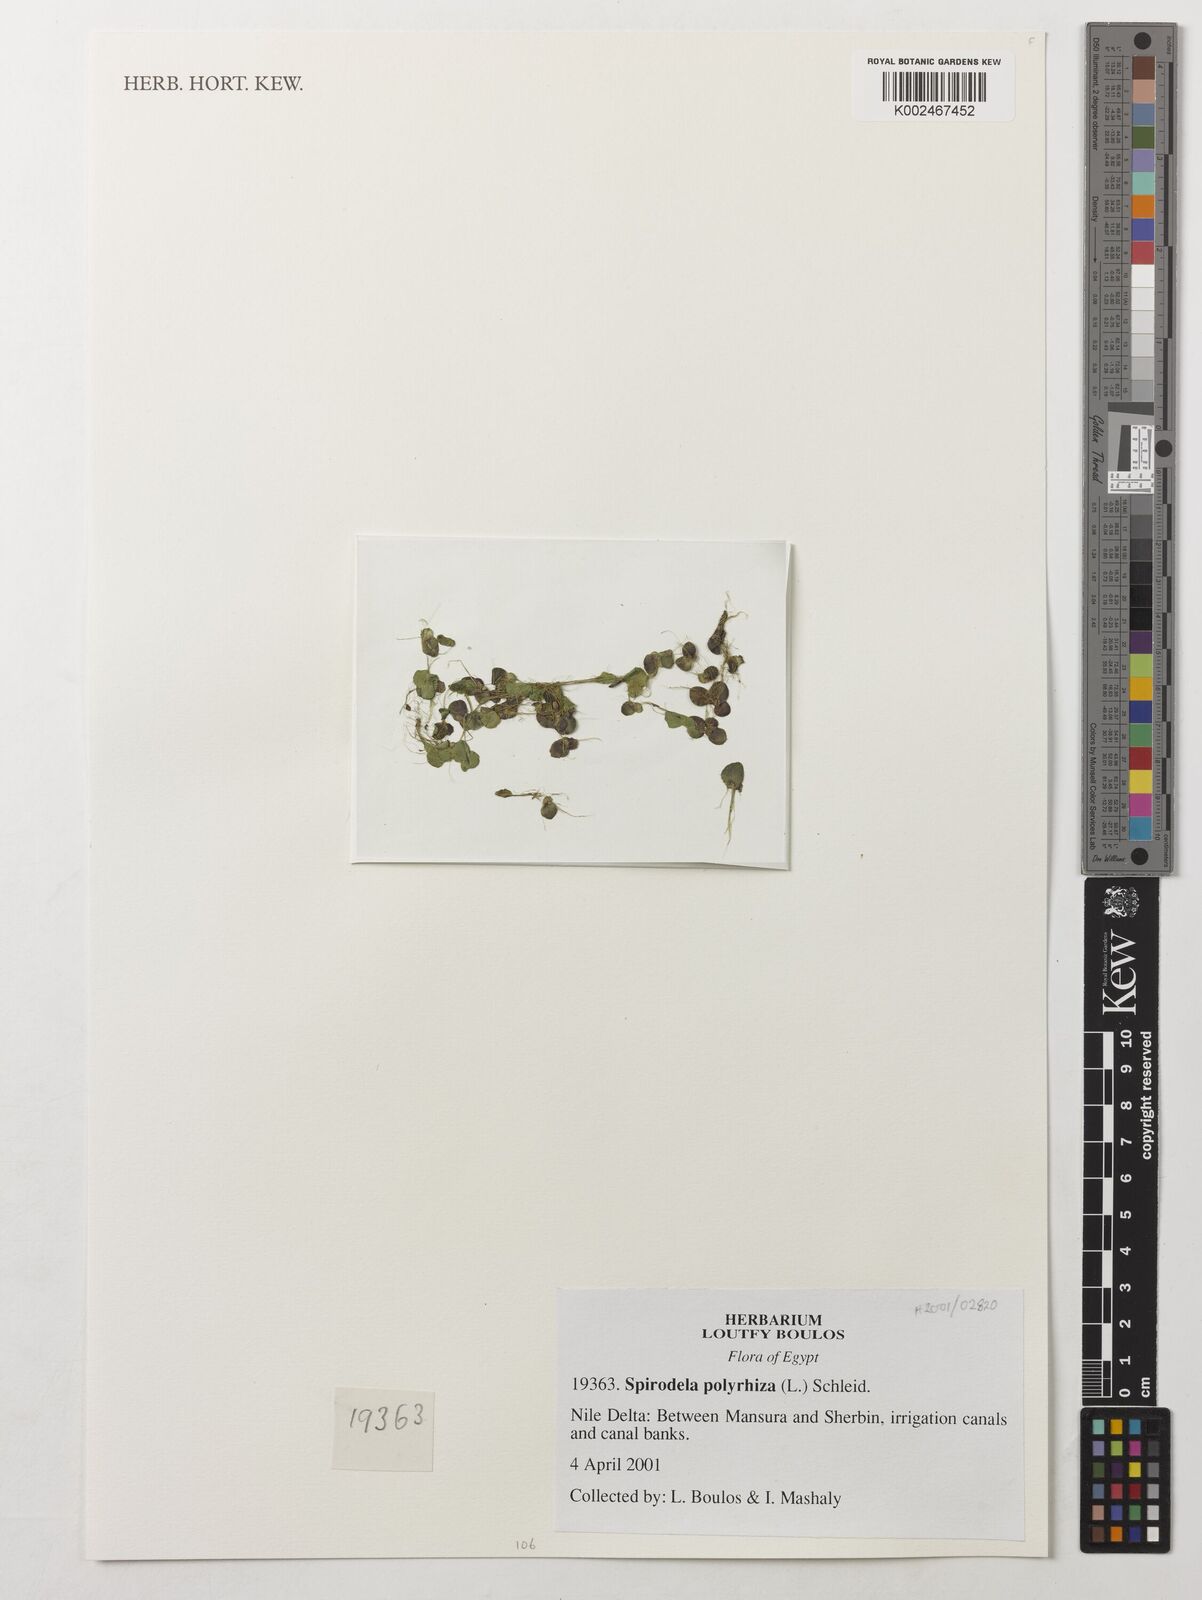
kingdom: Plantae
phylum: Tracheophyta
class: Liliopsida
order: Alismatales
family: Araceae
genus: Spirodela
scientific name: Spirodela polyrhiza
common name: Great duckweed
